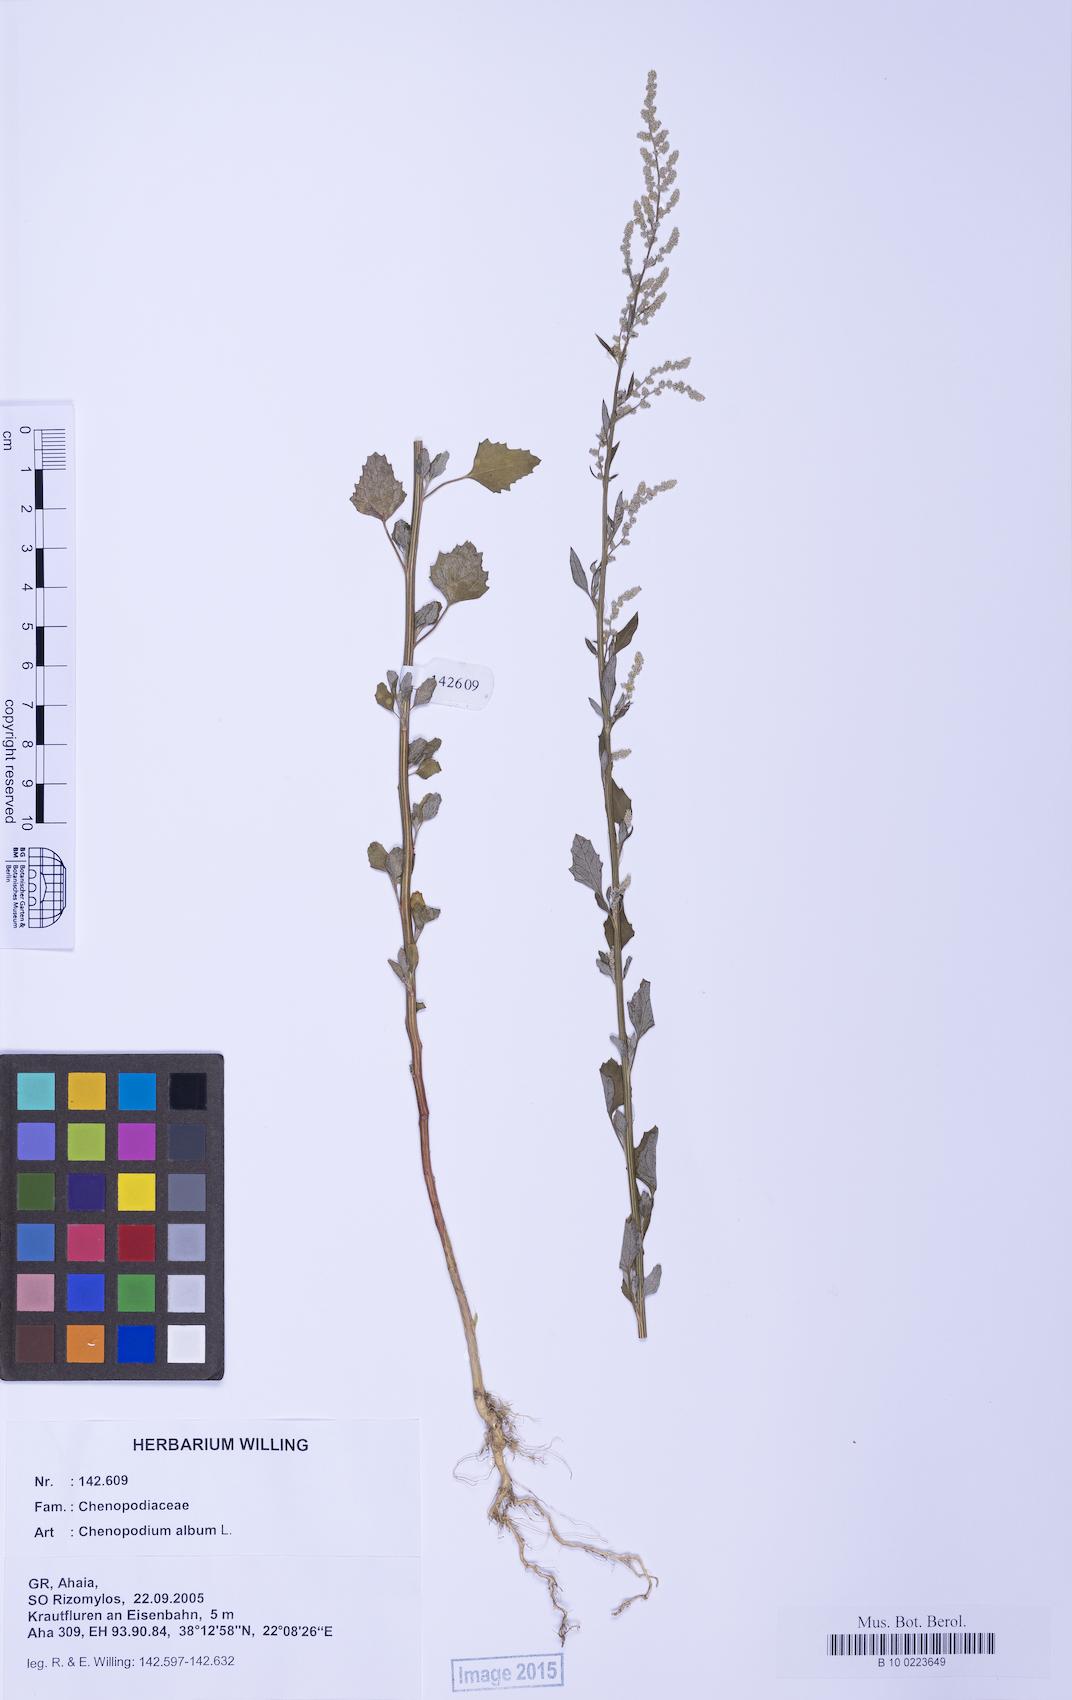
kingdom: Plantae
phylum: Tracheophyta
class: Magnoliopsida
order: Caryophyllales
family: Amaranthaceae
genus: Chenopodium
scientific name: Chenopodium album
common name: Fat-hen
